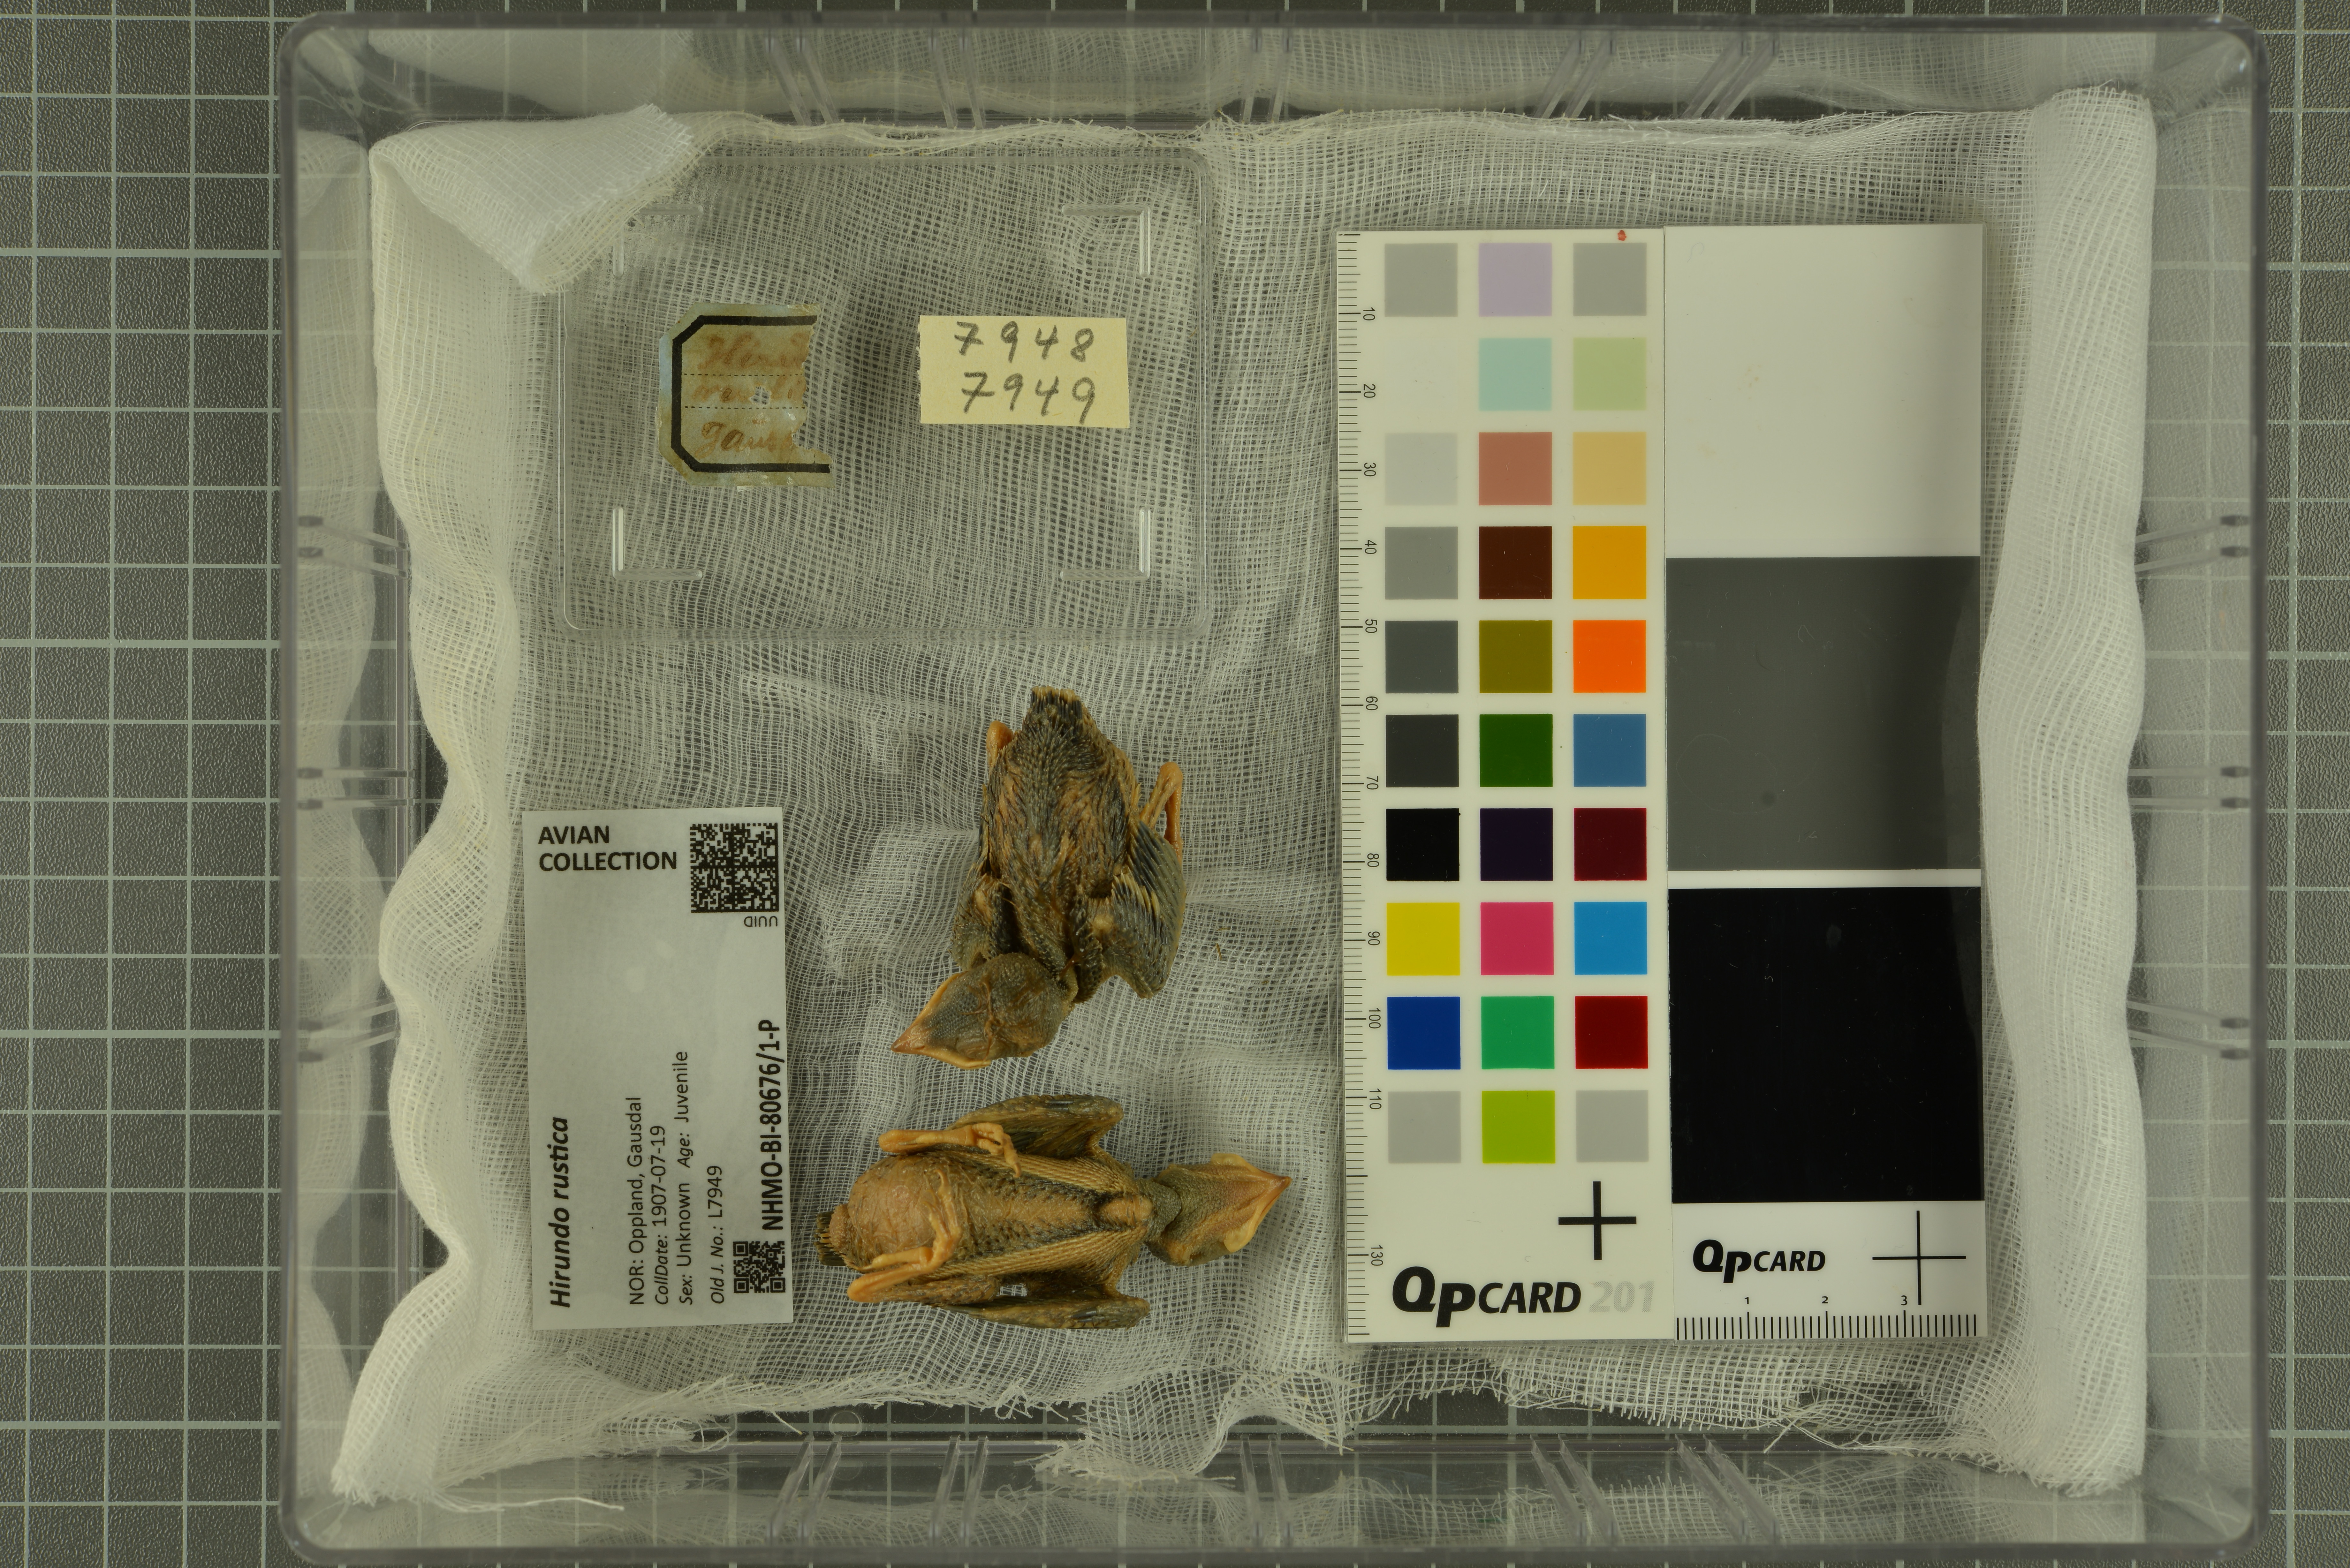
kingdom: Animalia
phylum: Chordata
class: Aves
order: Passeriformes
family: Hirundinidae
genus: Hirundo
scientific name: Hirundo rustica
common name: Barn swallow
